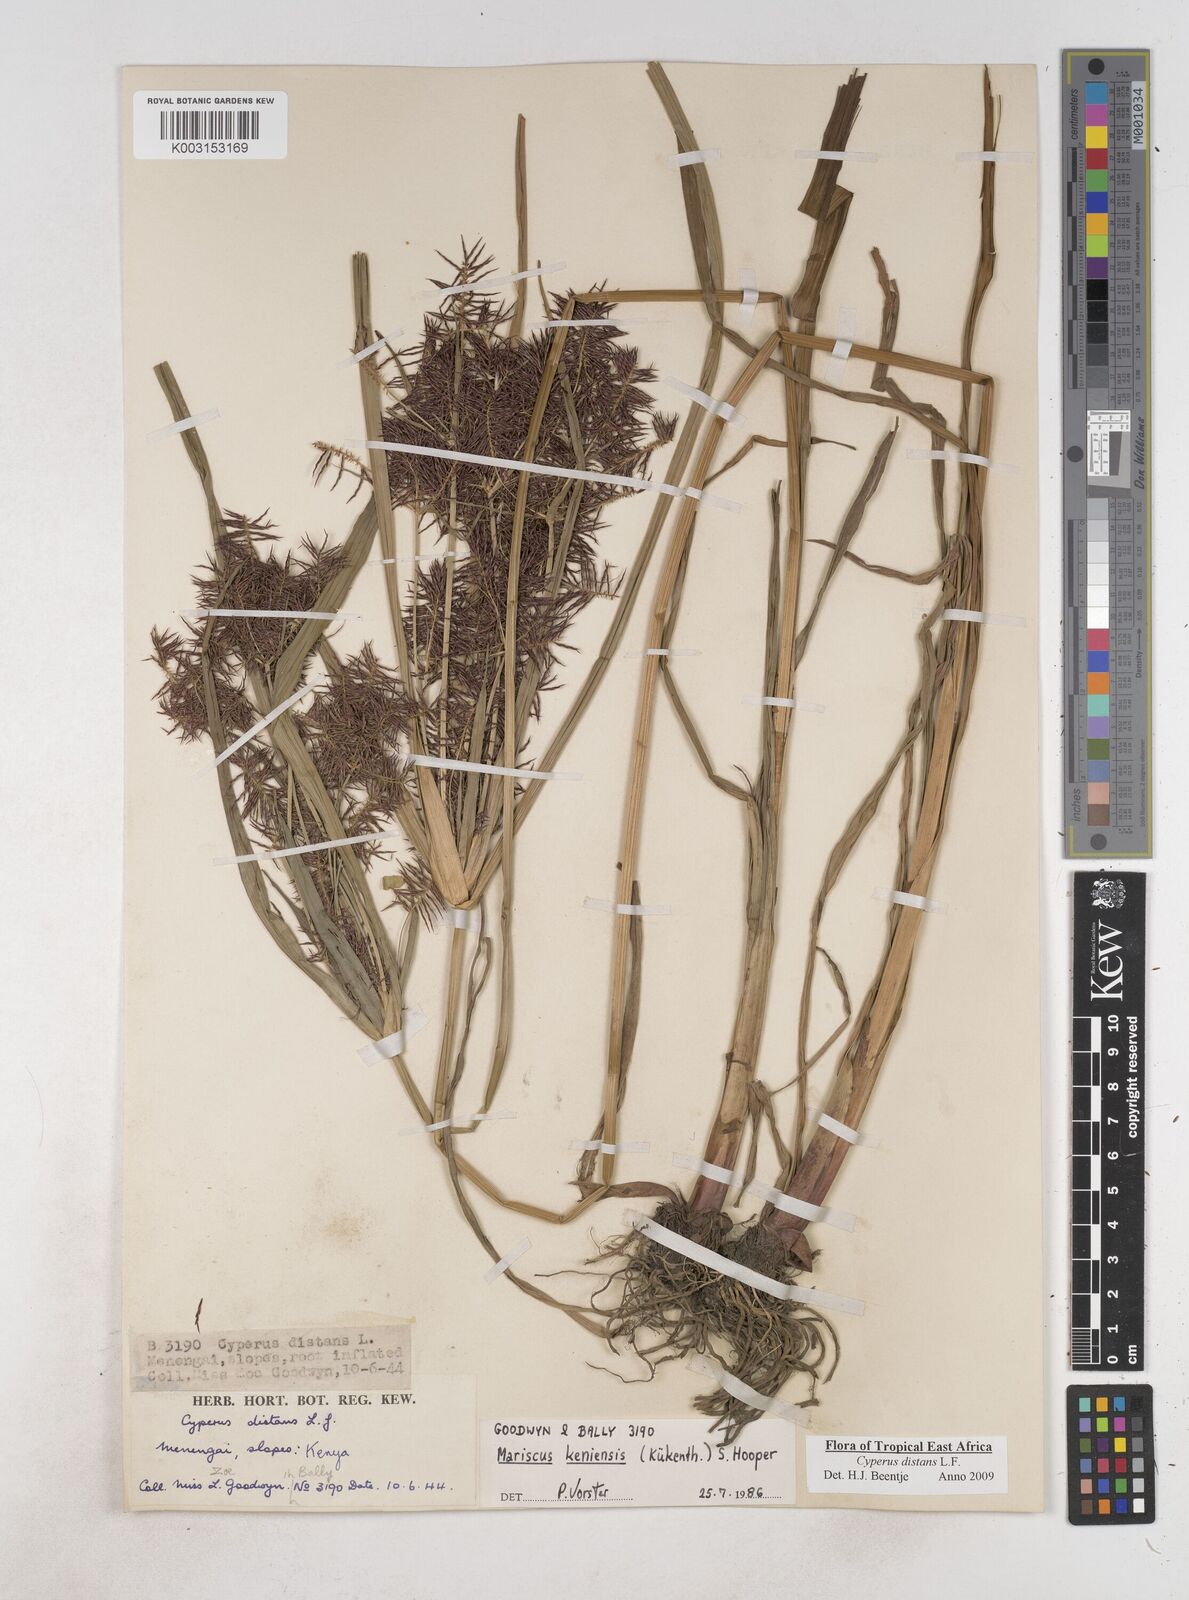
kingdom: Plantae
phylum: Tracheophyta
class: Liliopsida
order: Poales
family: Cyperaceae
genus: Cyperus
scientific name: Cyperus distans
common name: Slender cyperus
